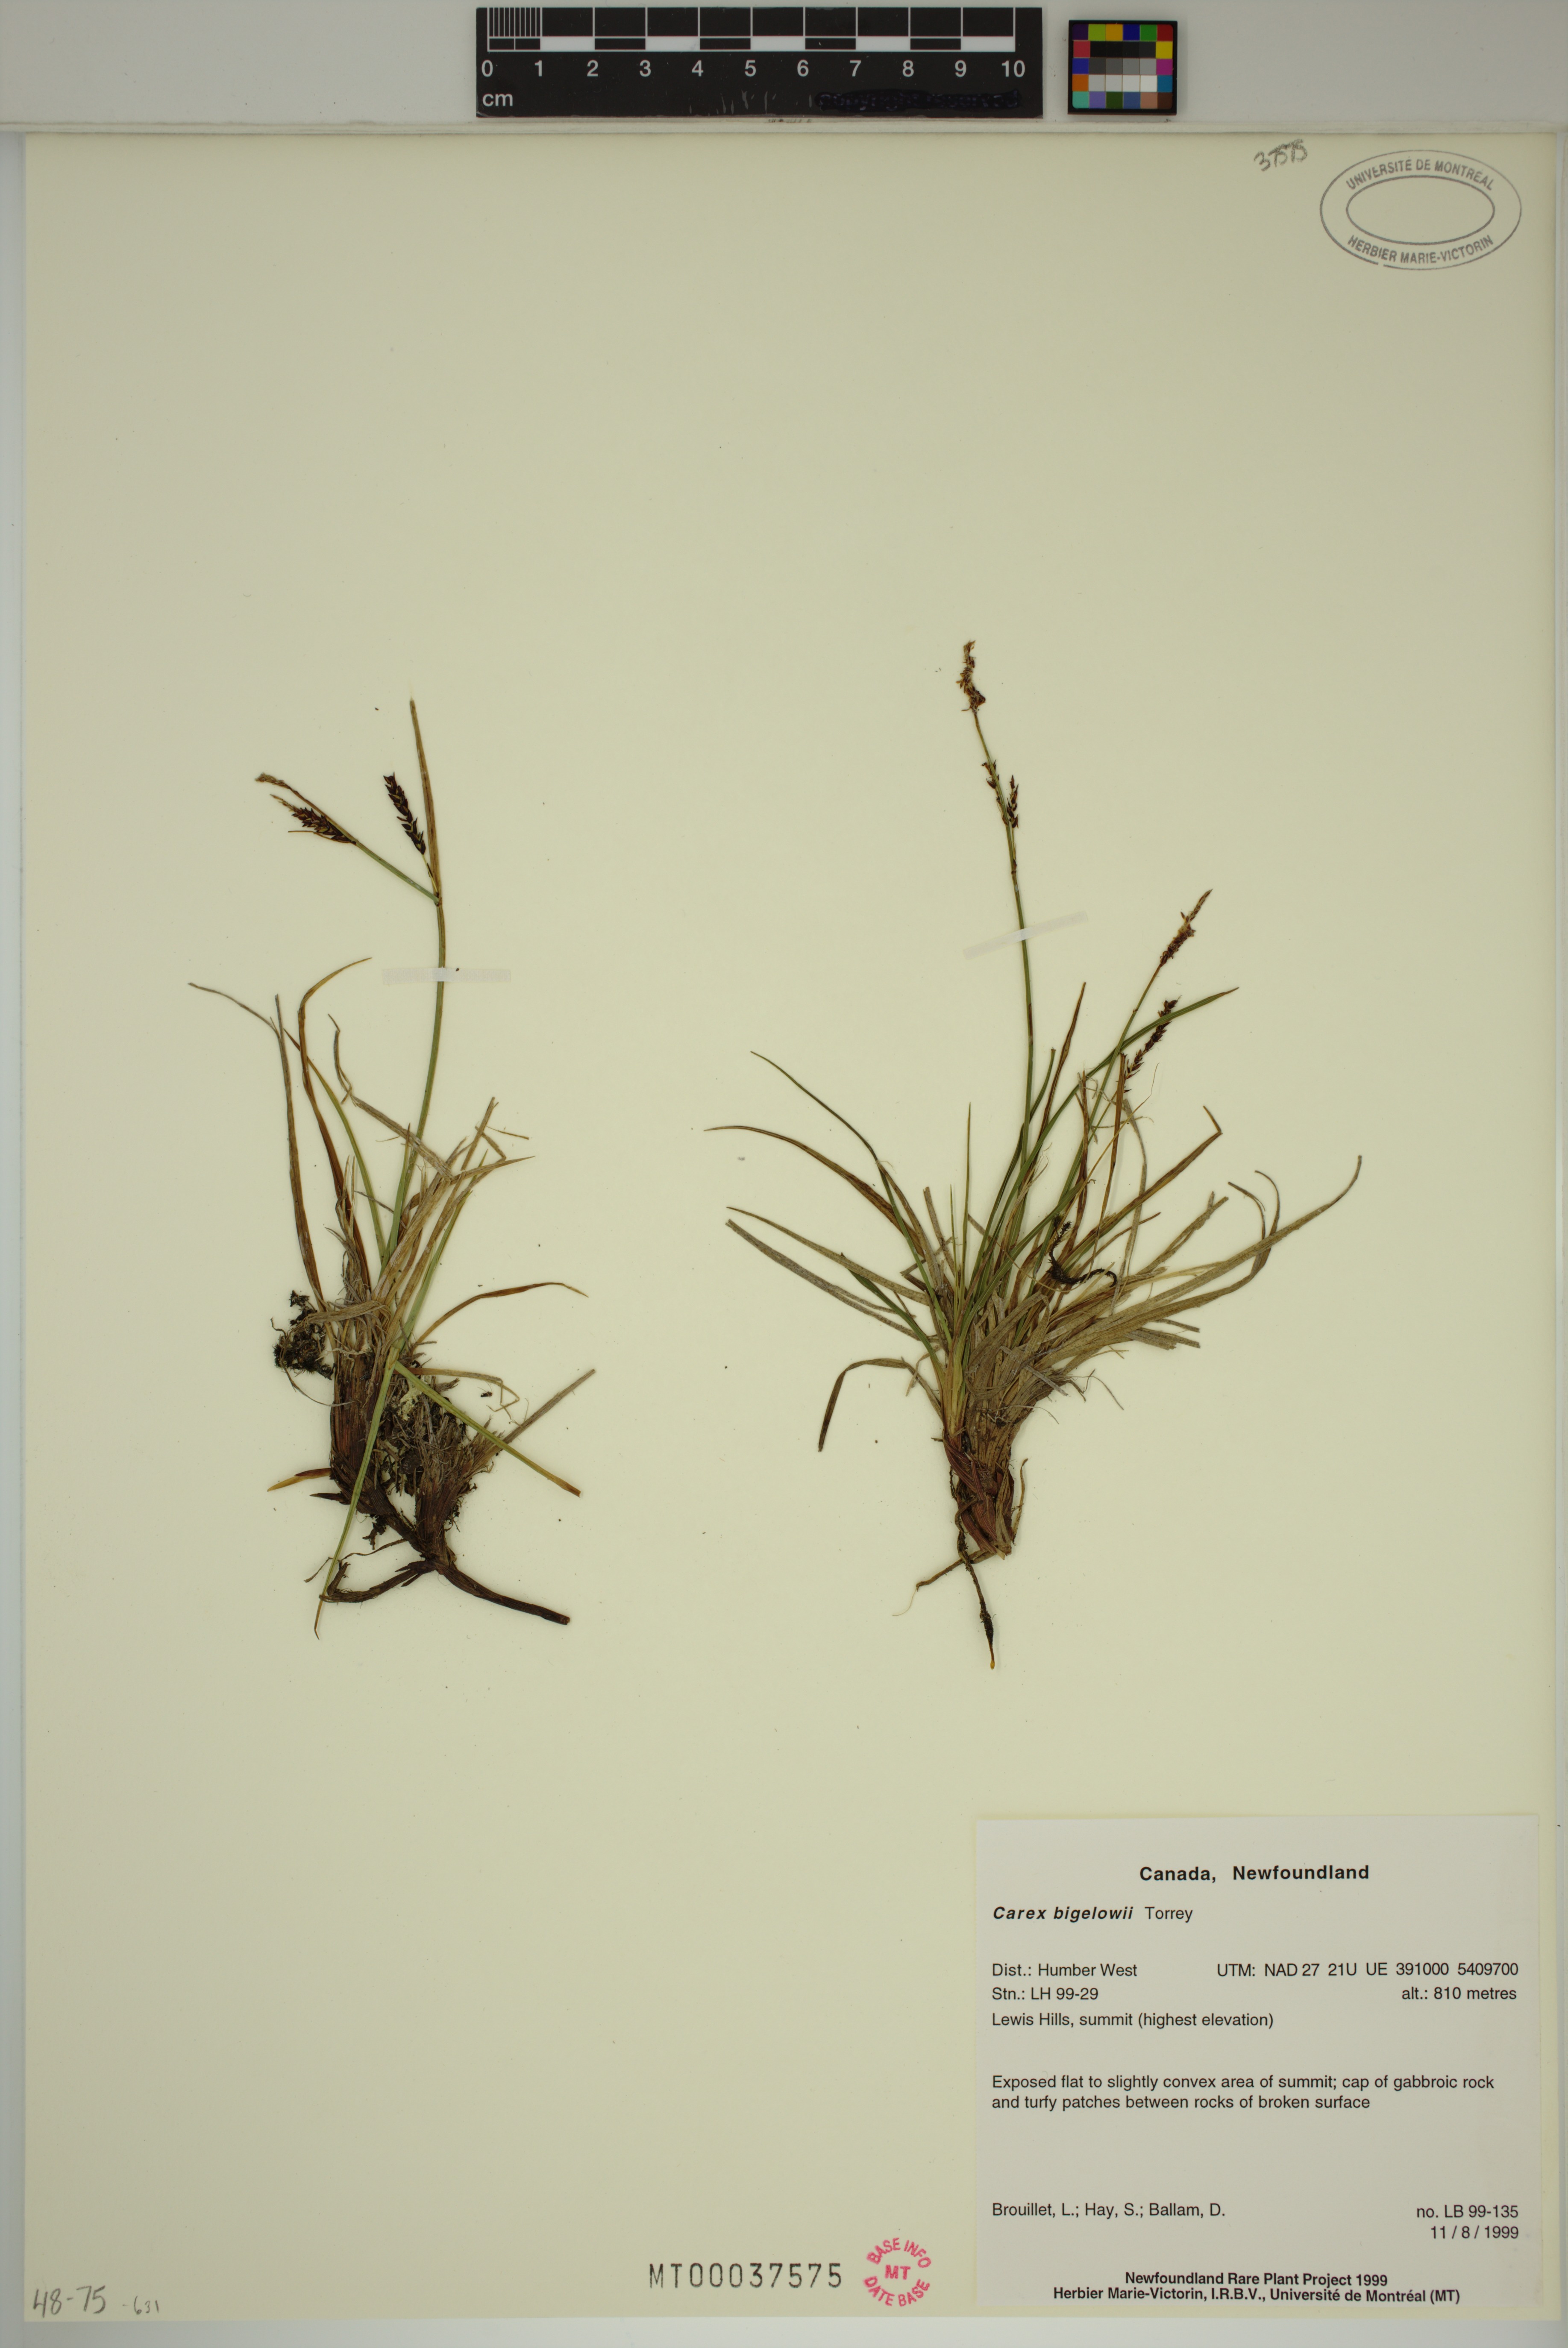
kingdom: Plantae
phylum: Tracheophyta
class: Liliopsida
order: Poales
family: Cyperaceae
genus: Carex
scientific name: Carex bigelowii
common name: Stiff sedge
